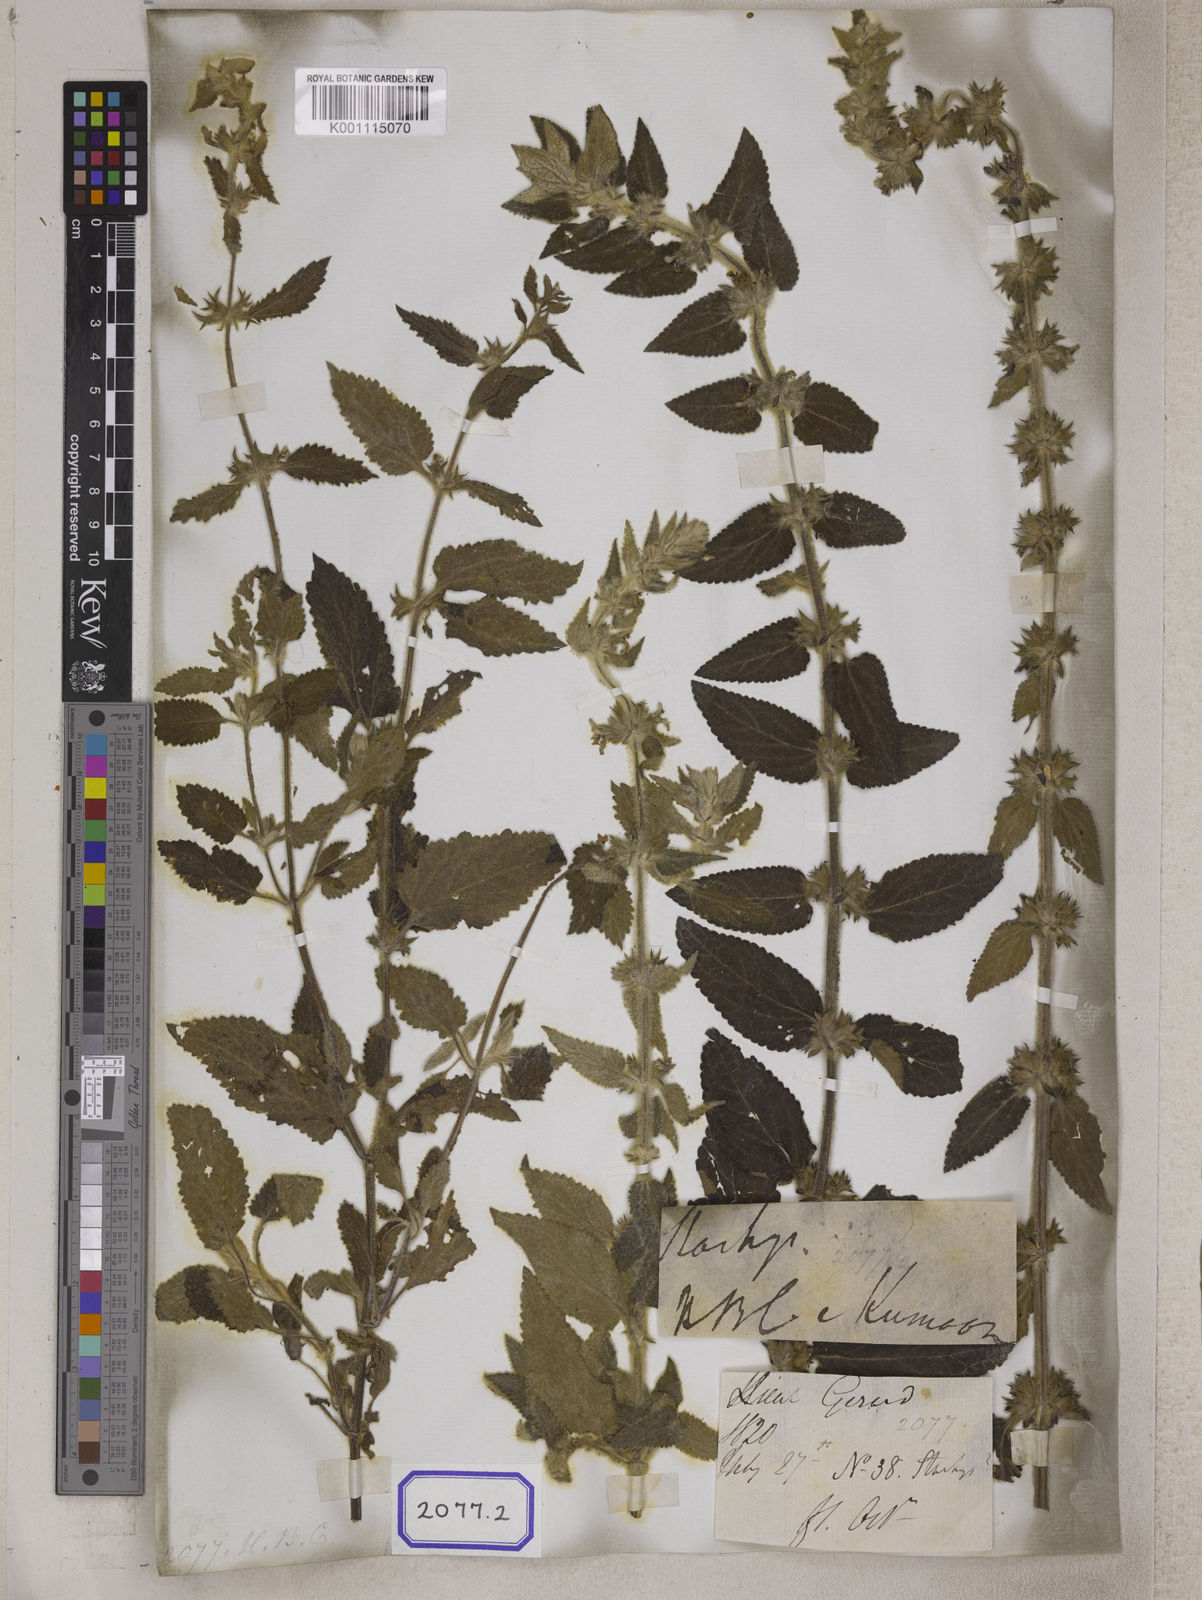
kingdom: Plantae
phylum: Tracheophyta
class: Magnoliopsida
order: Lamiales
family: Lamiaceae
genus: Stachys
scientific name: Stachys
